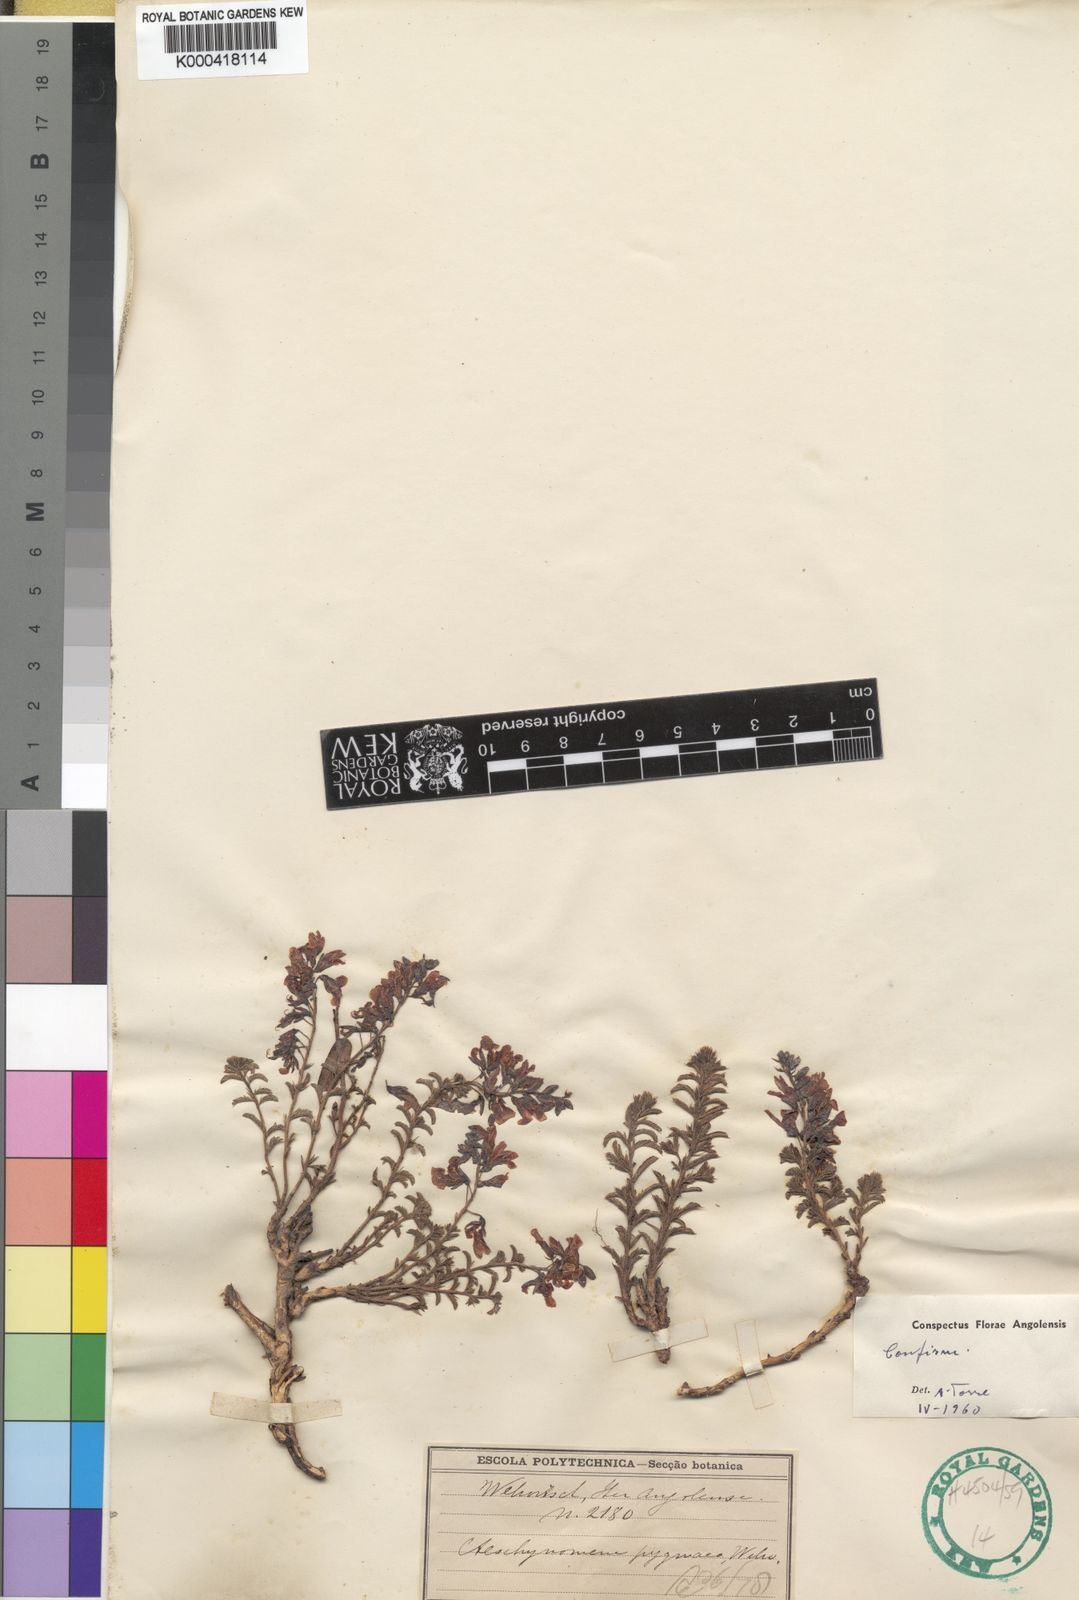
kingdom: Plantae
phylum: Tracheophyta
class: Magnoliopsida
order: Fabales
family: Fabaceae
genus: Aeschynomene
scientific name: Aeschynomene pygmaea
